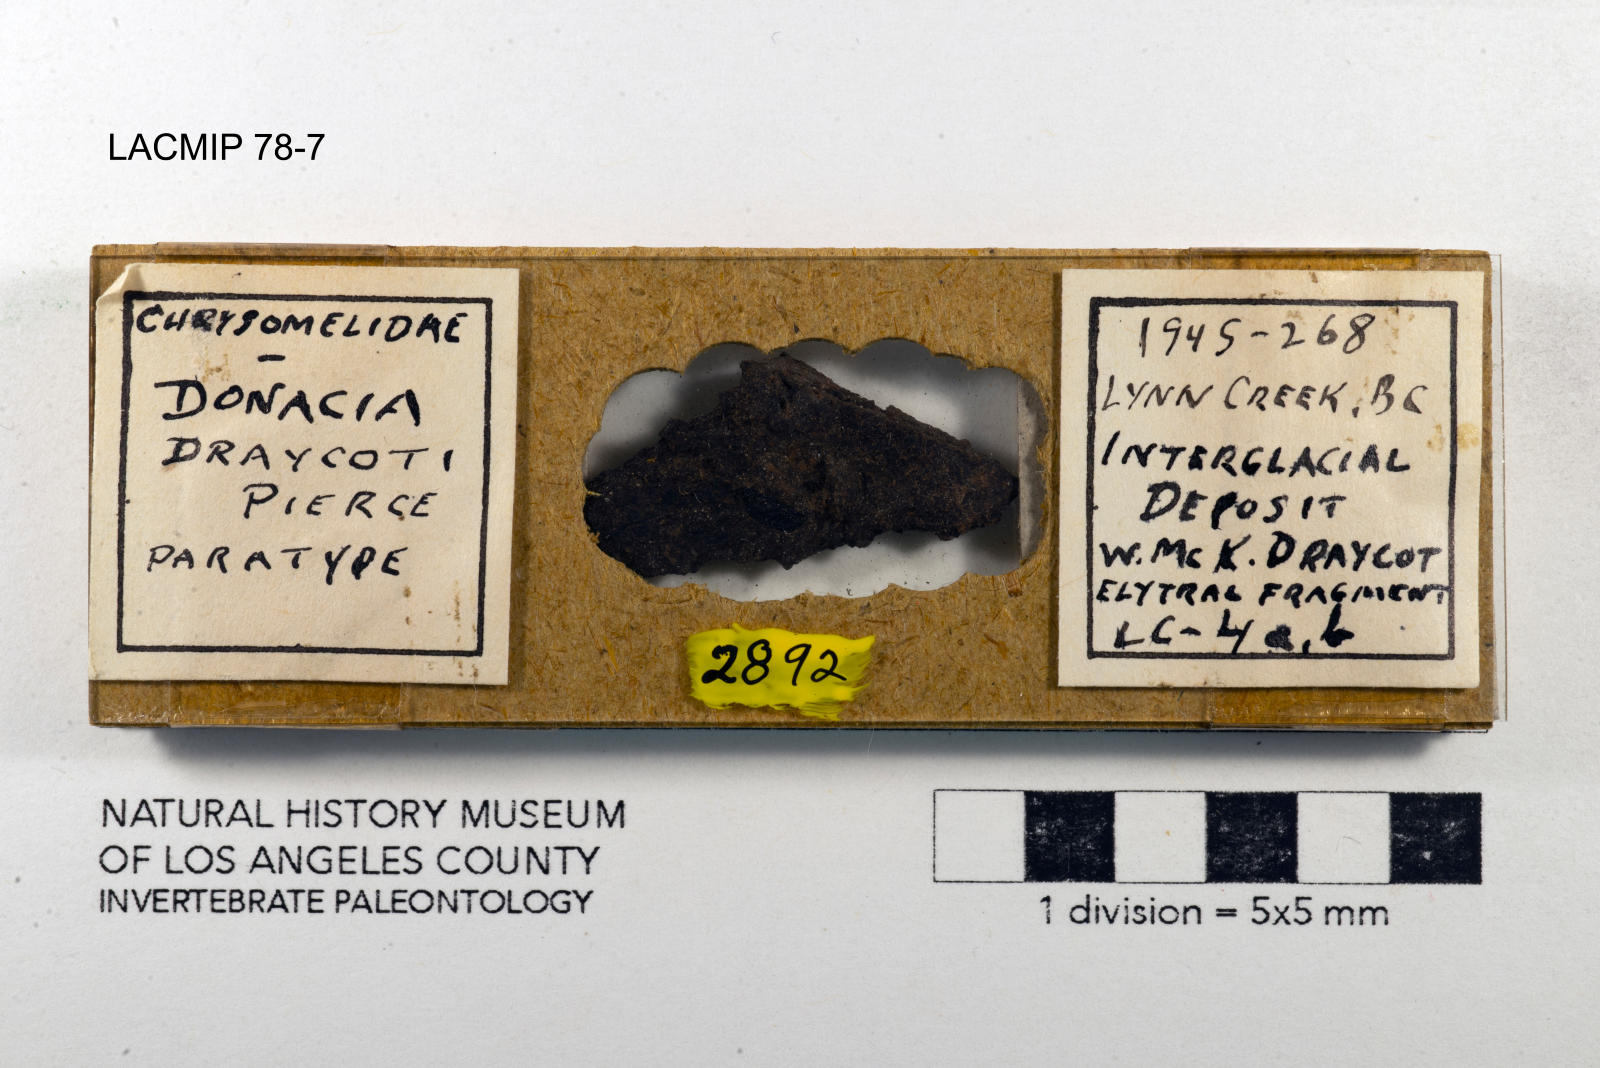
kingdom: Animalia
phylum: Arthropoda
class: Insecta
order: Coleoptera
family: Chrysomelidae
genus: Donacia
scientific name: Donacia draycoti
